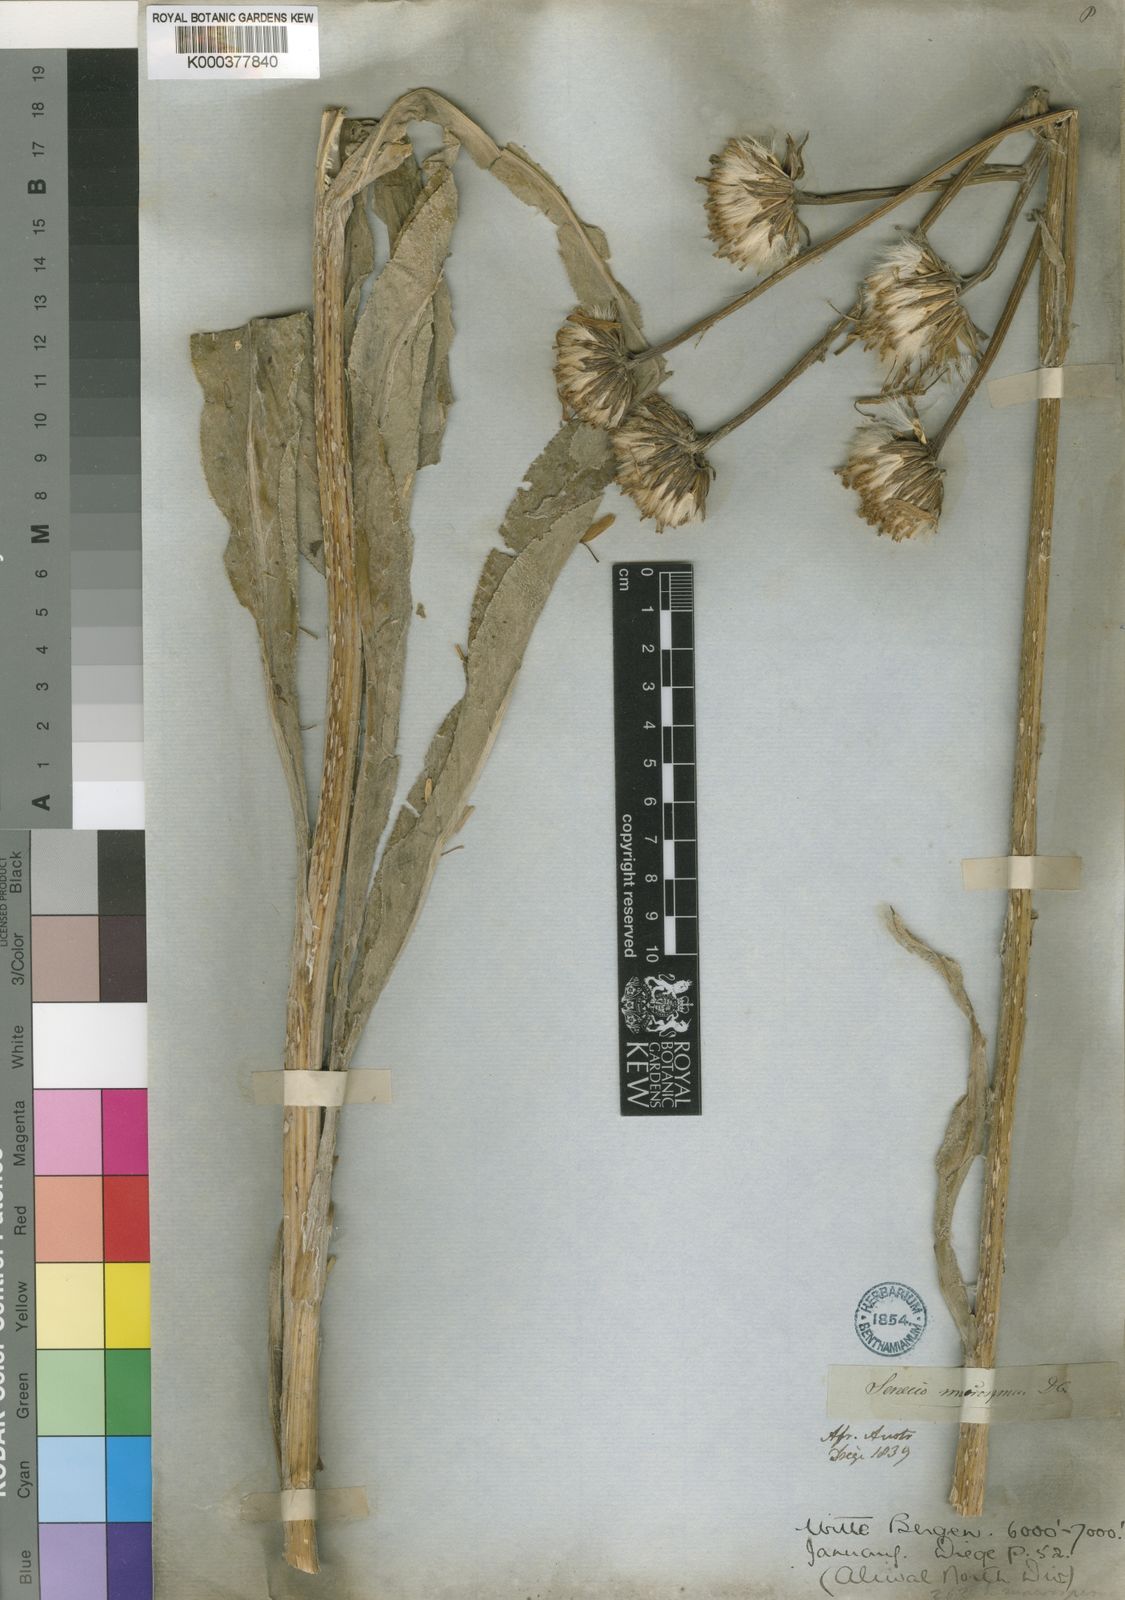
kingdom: Plantae
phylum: Tracheophyta
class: Magnoliopsida
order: Asterales
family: Asteraceae
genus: Senecio
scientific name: Senecio macrospermus
